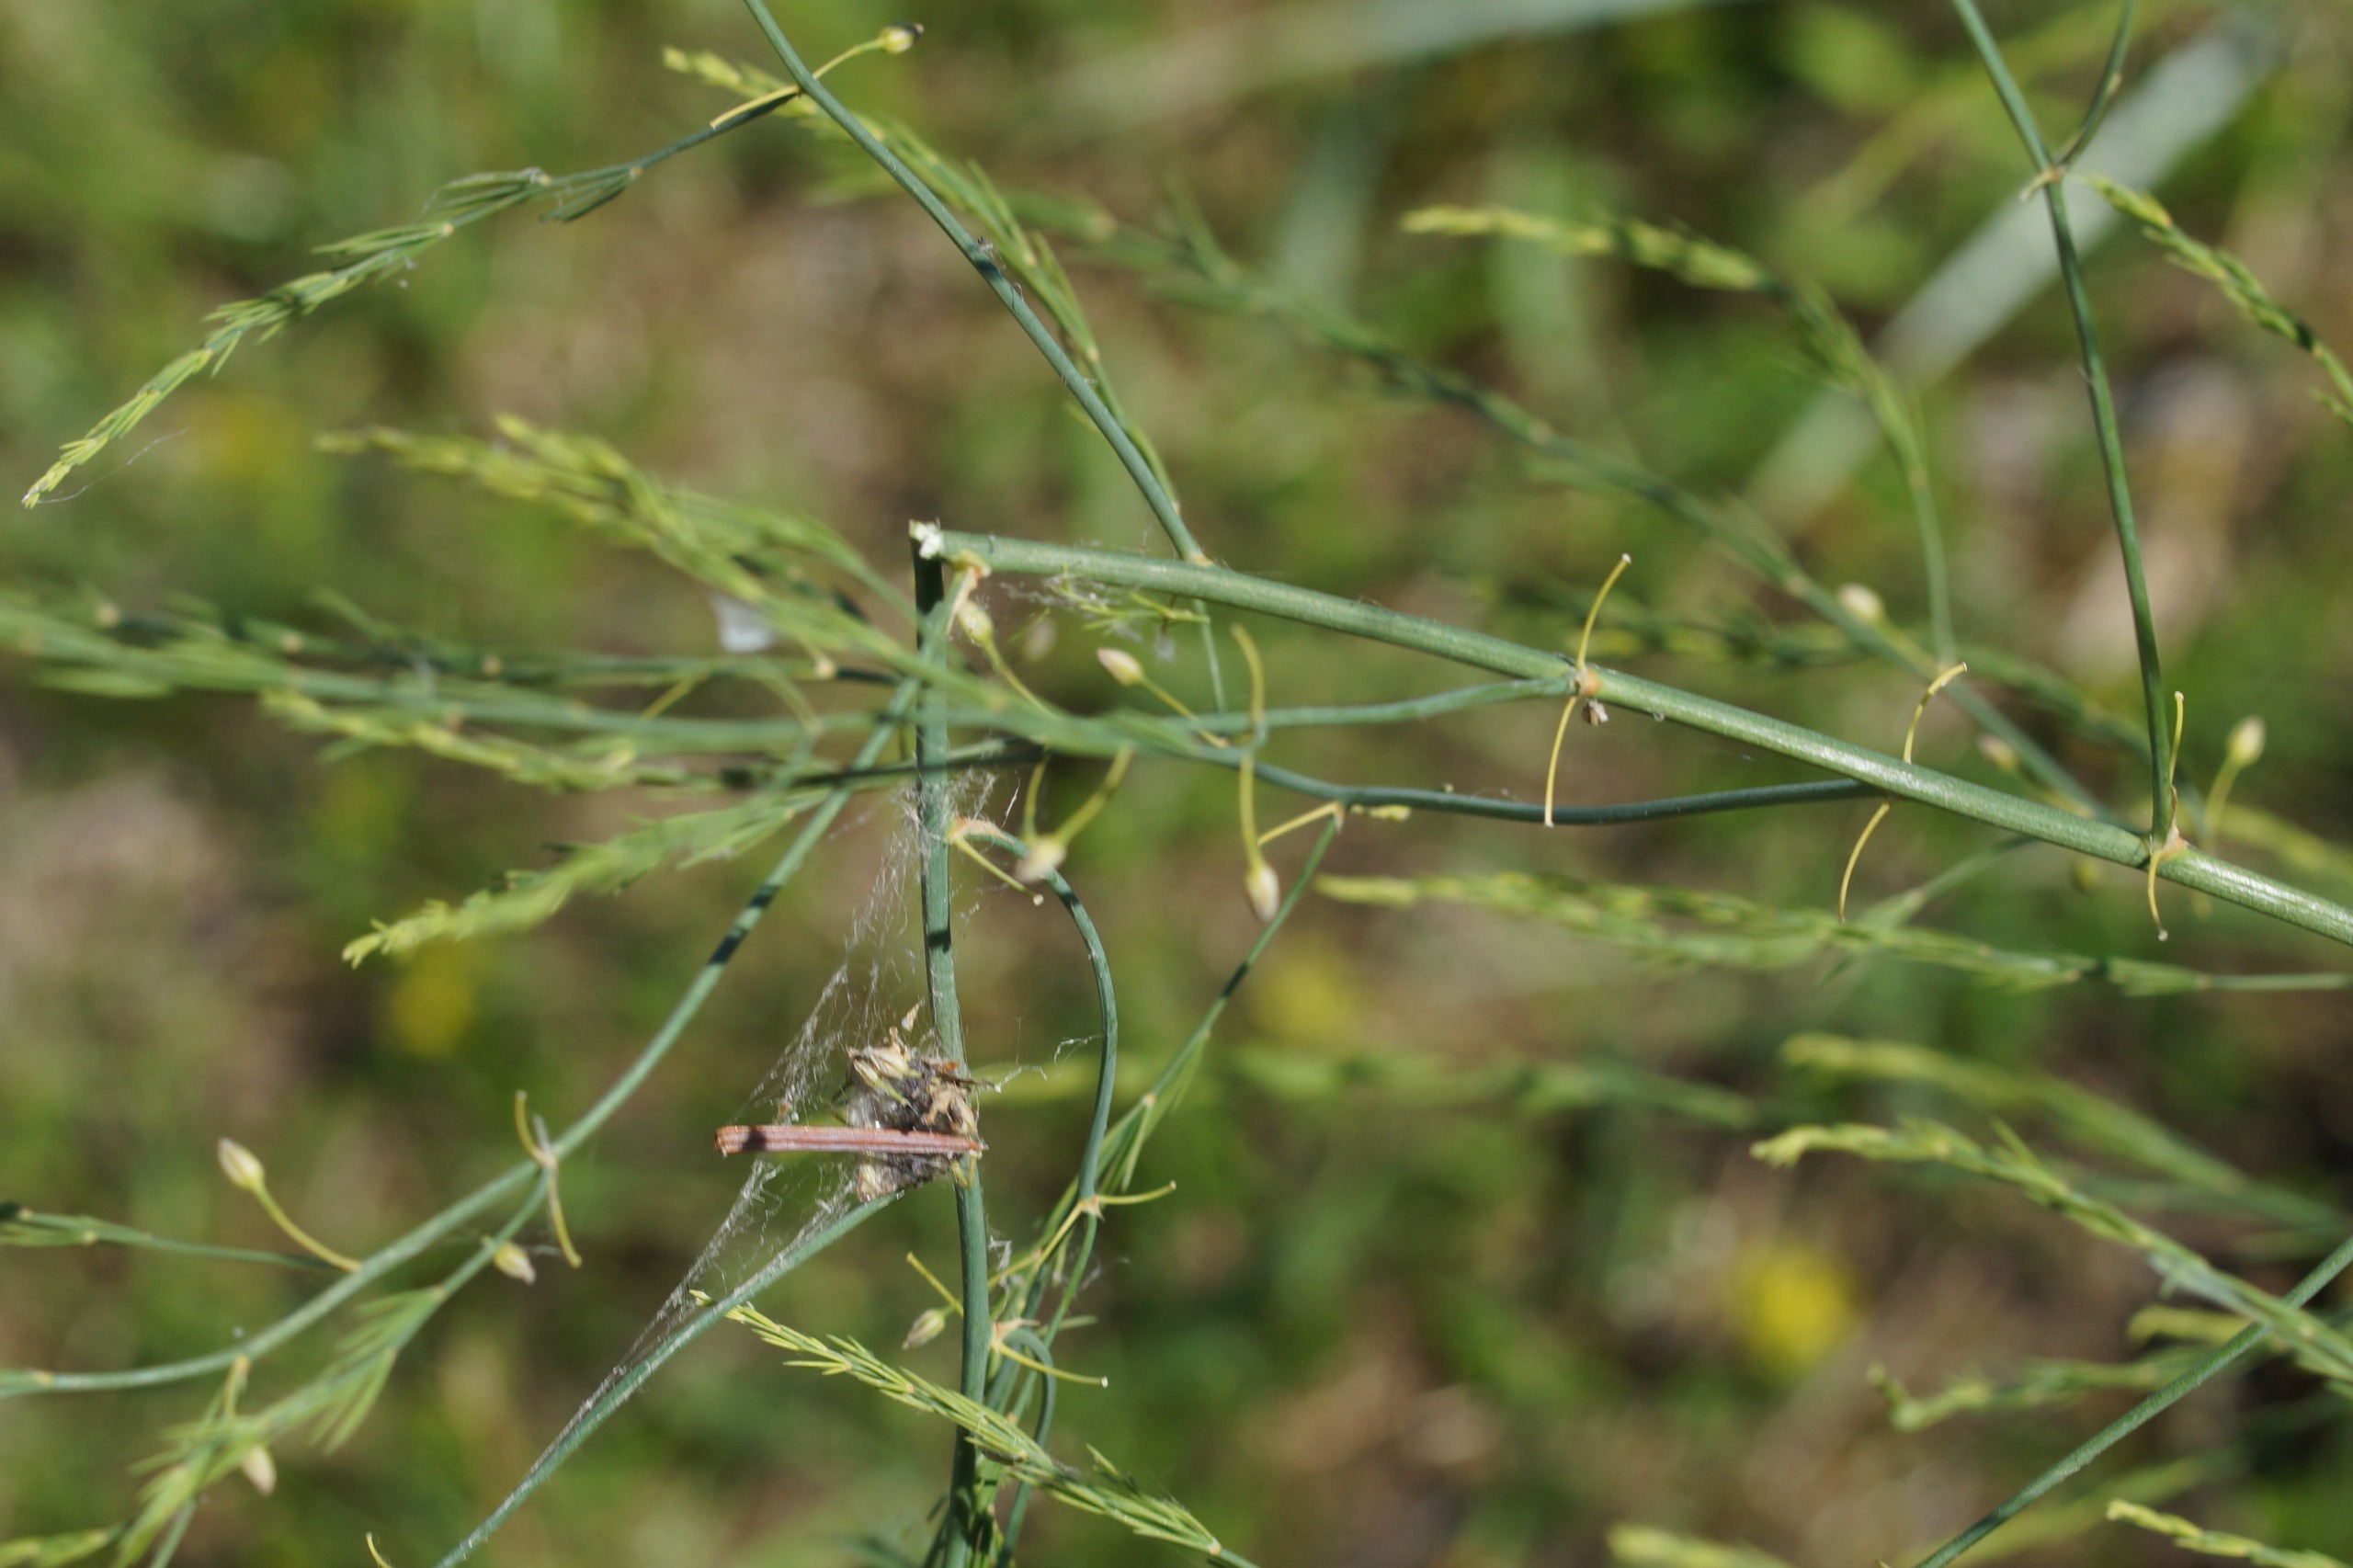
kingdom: Plantae
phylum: Tracheophyta
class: Liliopsida
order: Asparagales
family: Asparagaceae
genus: Asparagus
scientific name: Asparagus officinalis
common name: Asparges
